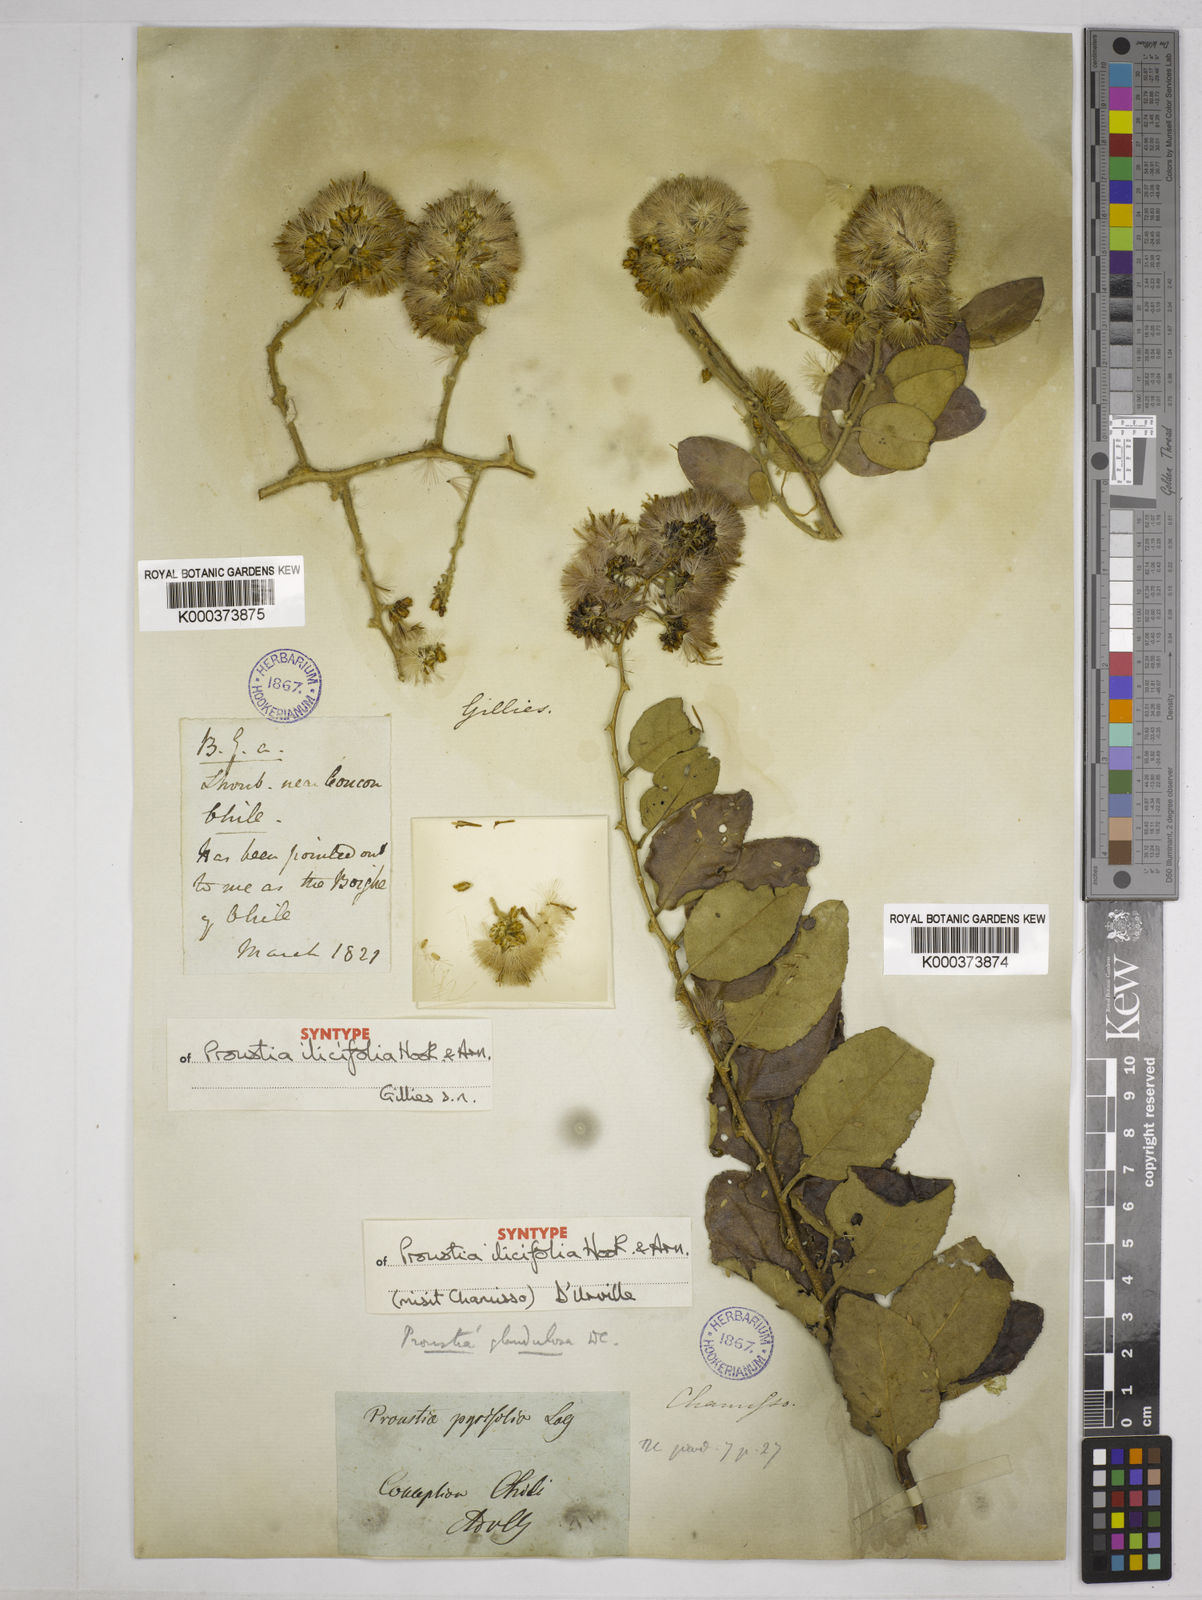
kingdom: Plantae
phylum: Tracheophyta
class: Magnoliopsida
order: Asterales
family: Asteraceae
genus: Spinoliva
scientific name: Spinoliva ilicifolia
